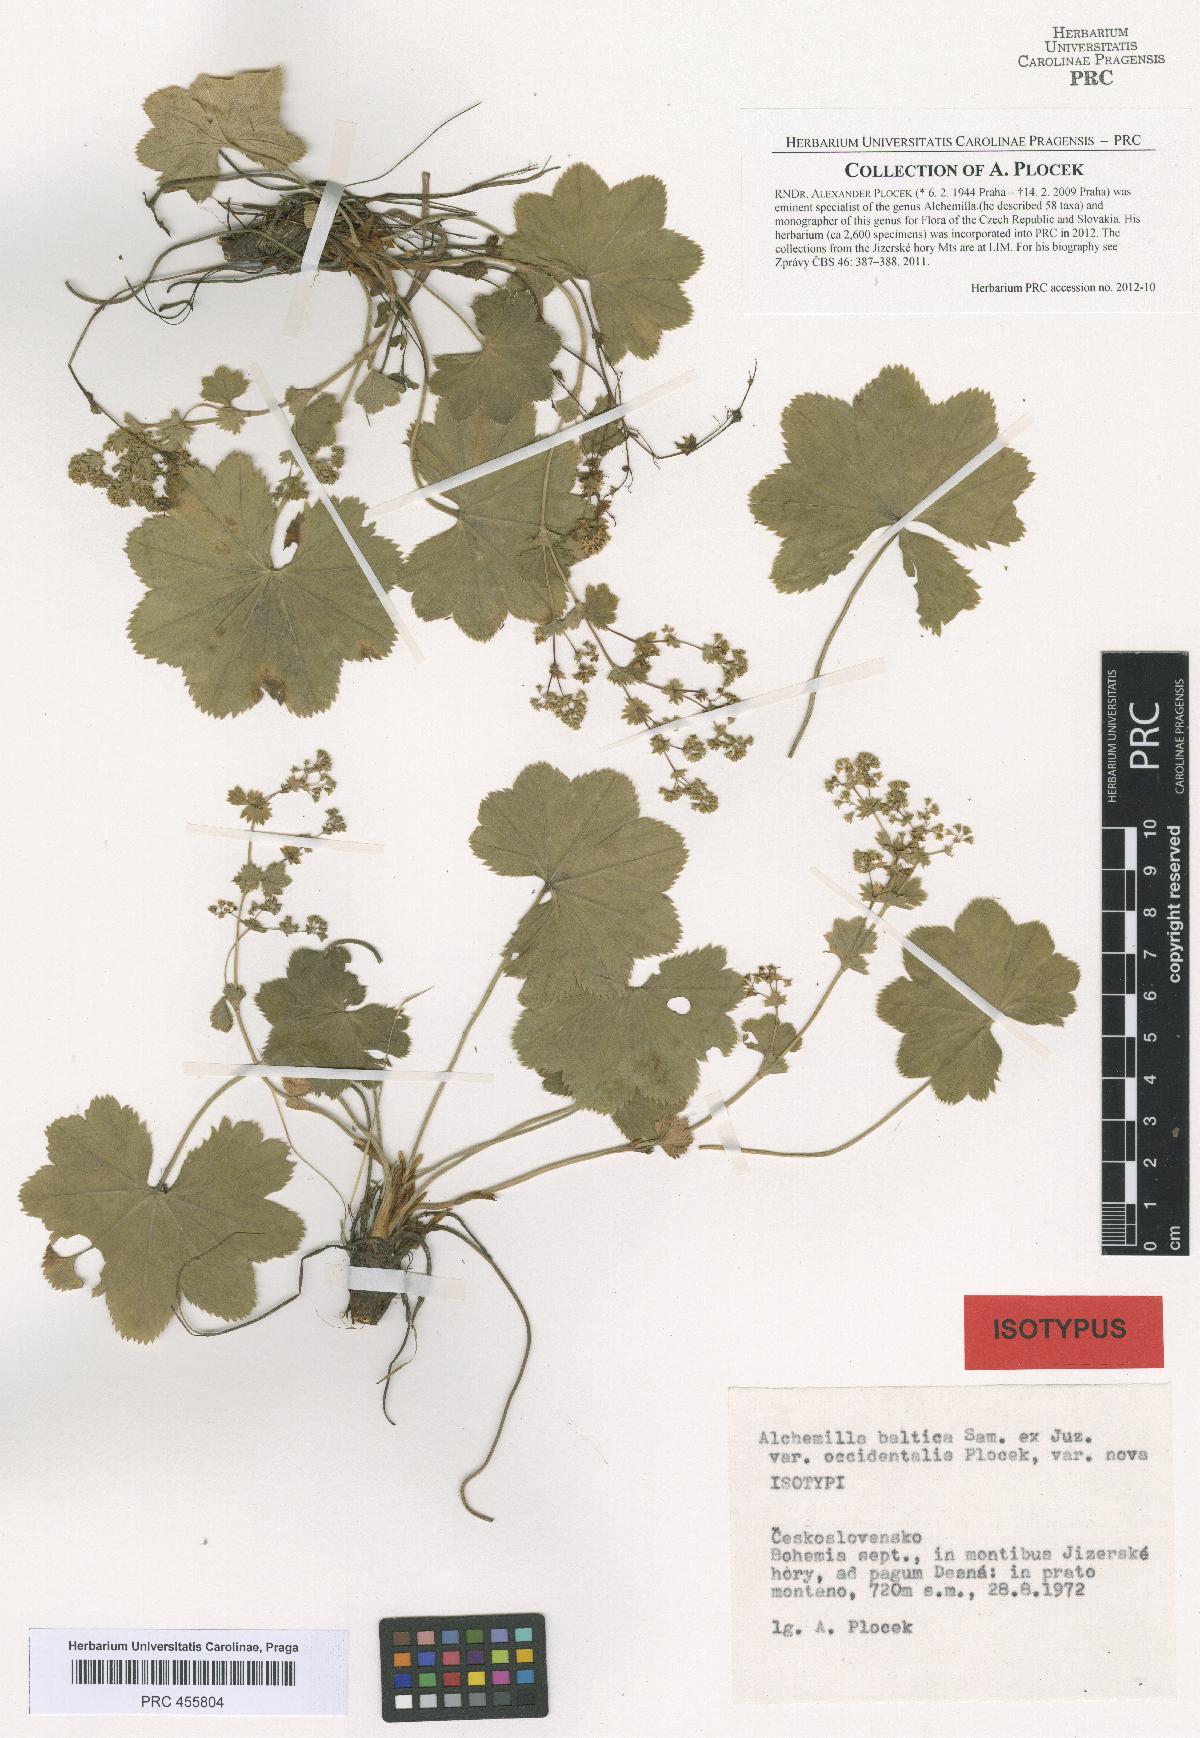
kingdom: Plantae
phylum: Tracheophyta
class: Magnoliopsida
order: Rosales
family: Rosaceae
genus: Alchemilla
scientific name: Alchemilla corcontica
